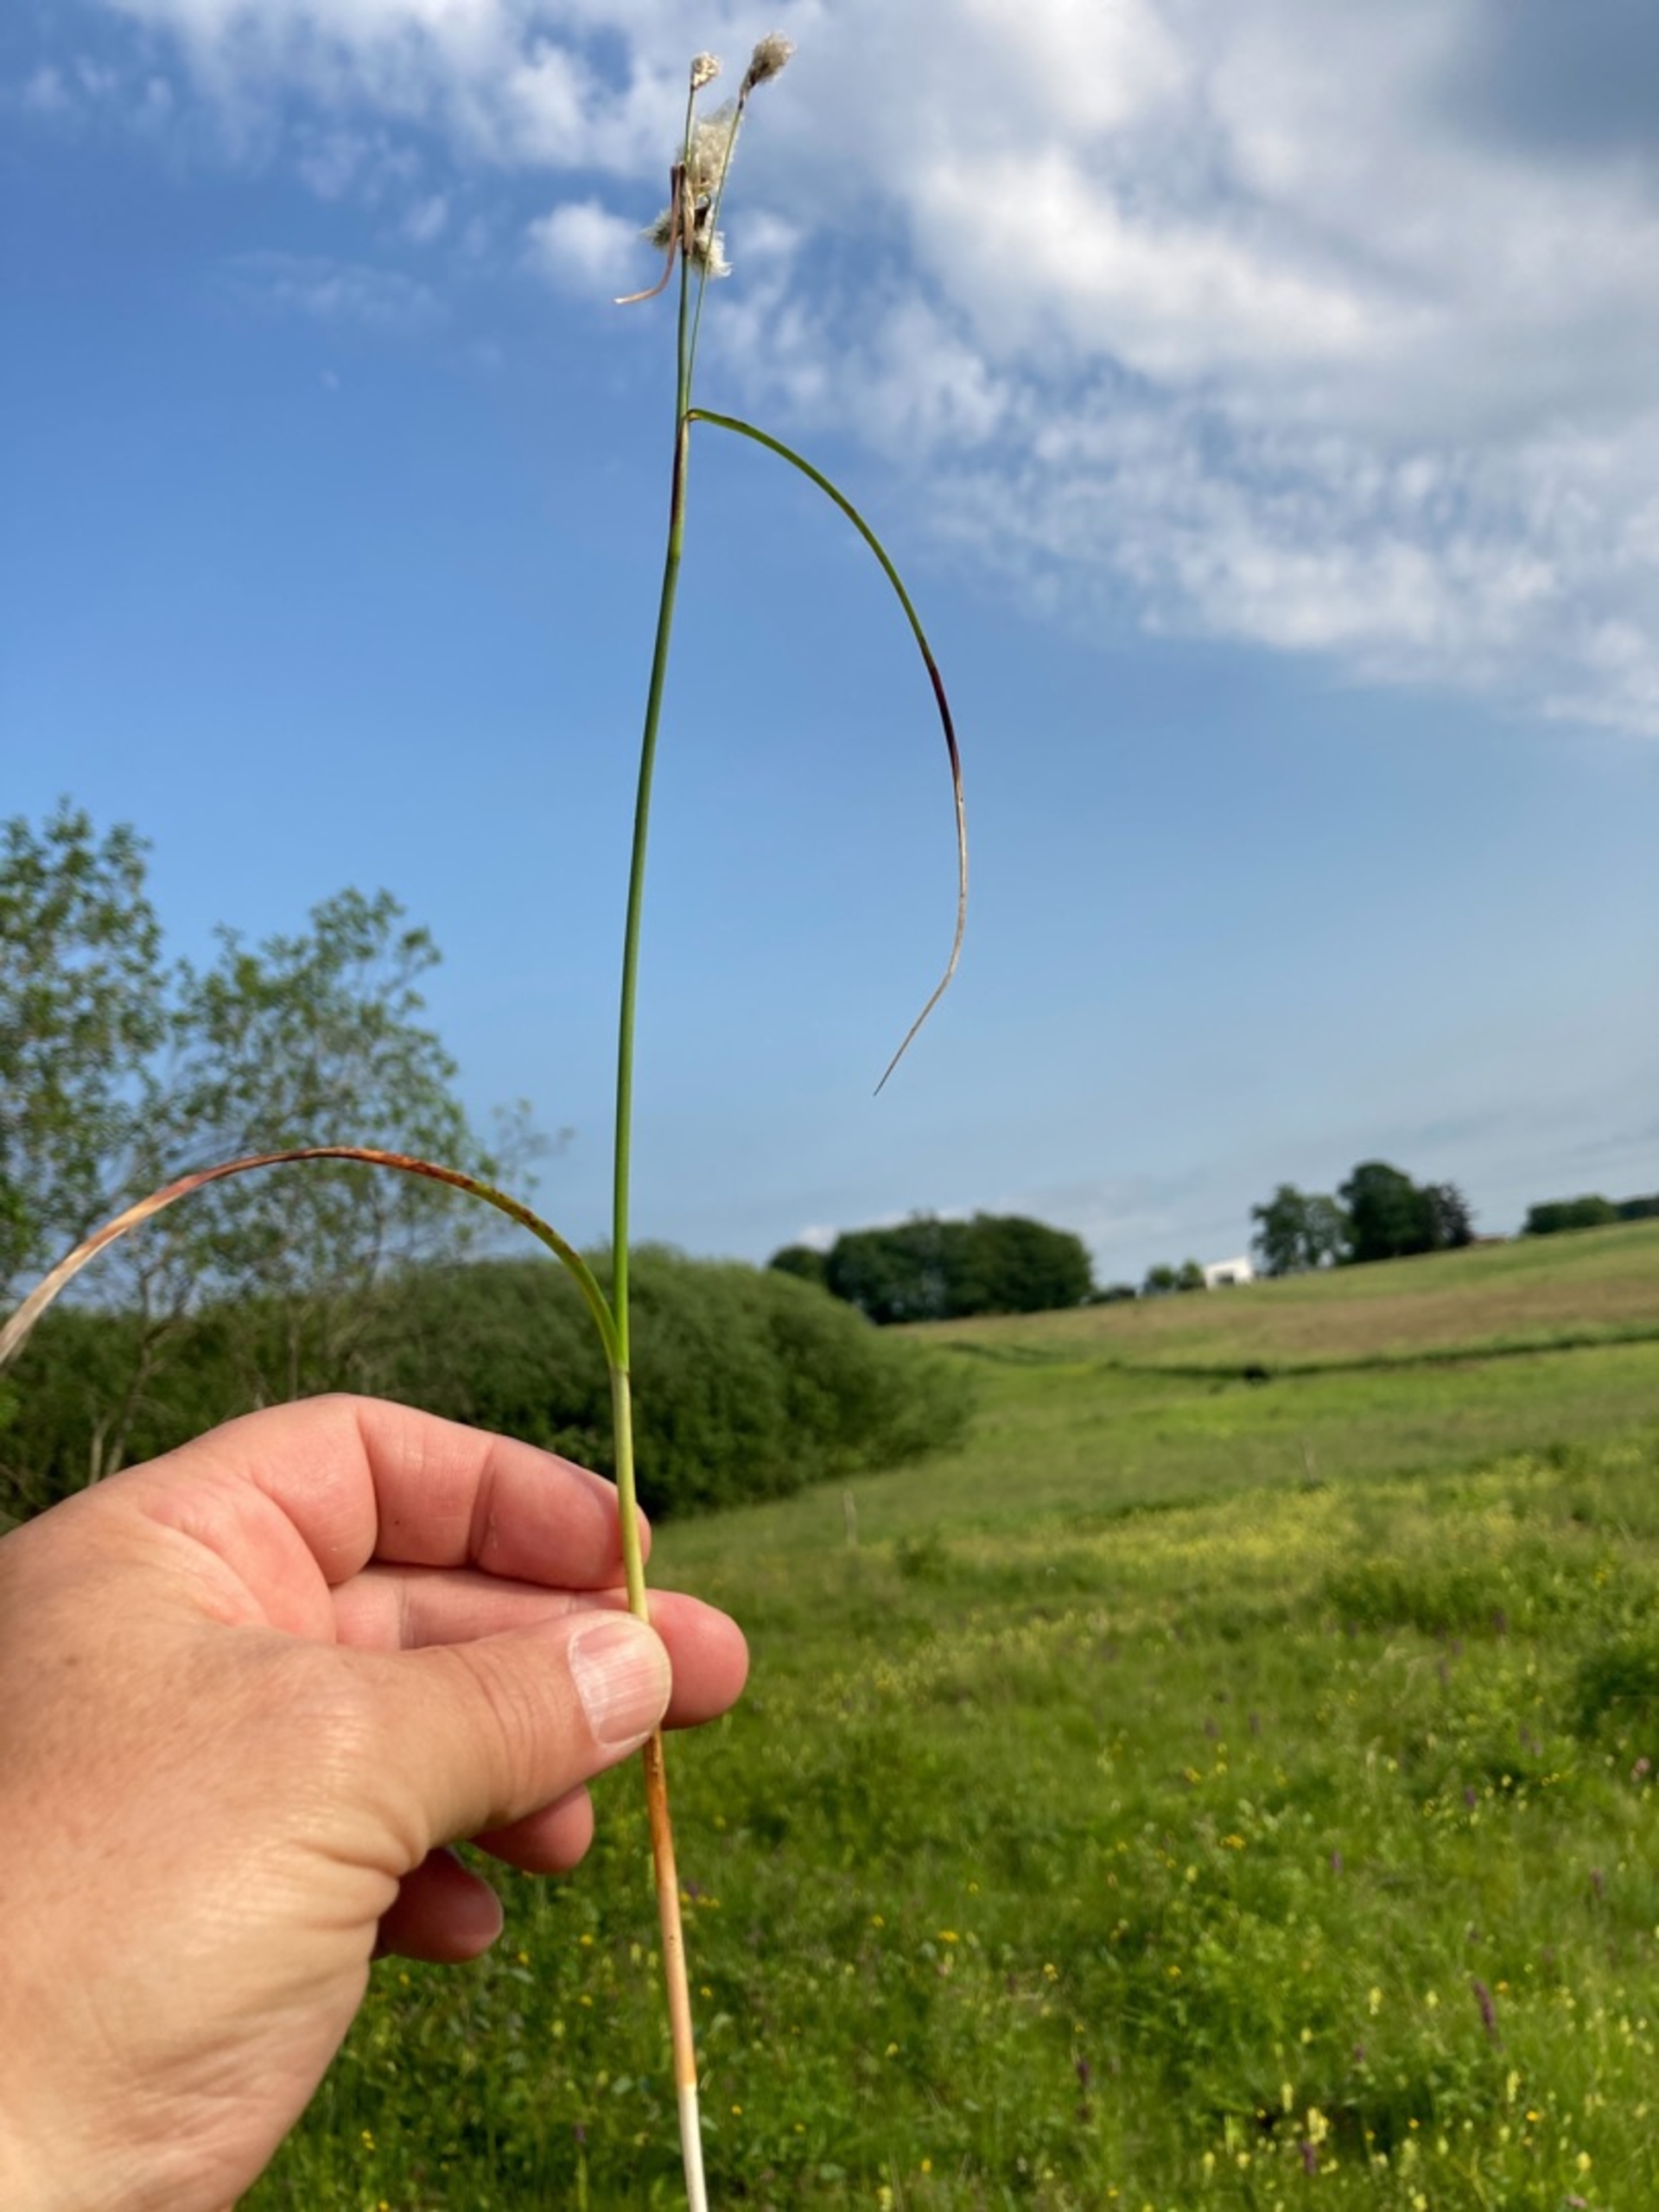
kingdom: Plantae
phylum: Tracheophyta
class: Liliopsida
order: Poales
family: Cyperaceae
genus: Eriophorum
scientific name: Eriophorum angustifolium
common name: Smalbladet kæruld
